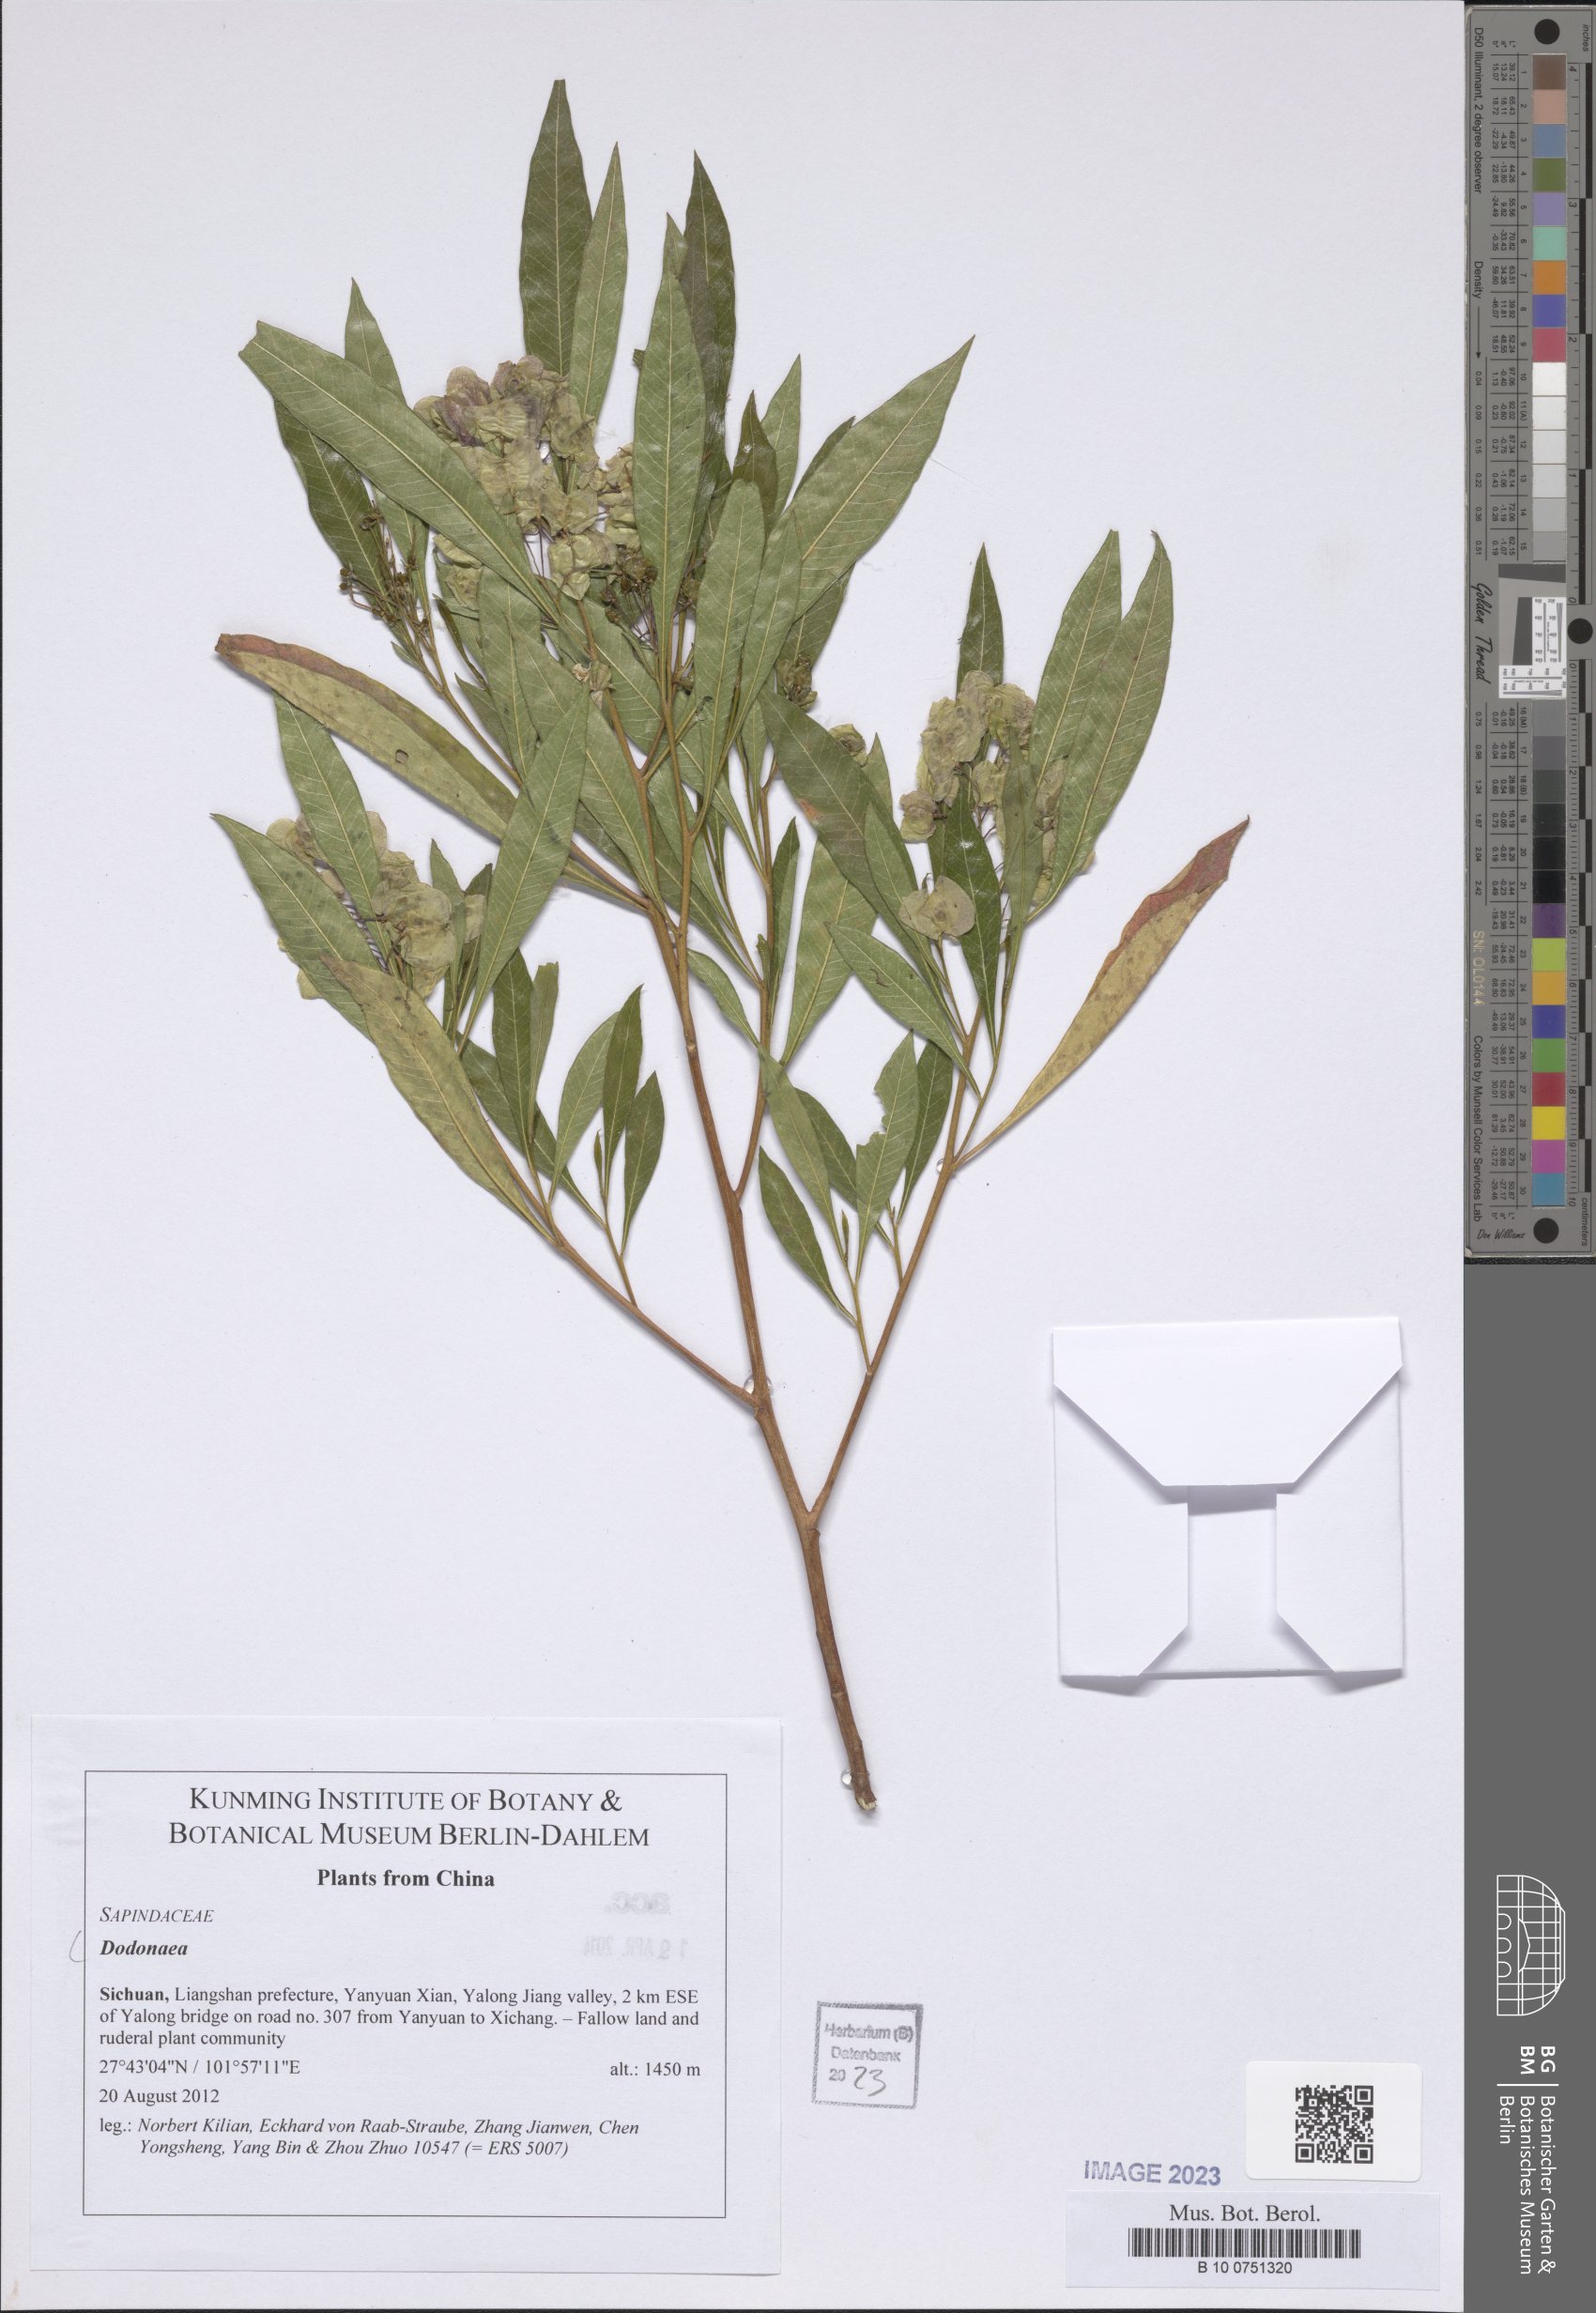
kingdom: Plantae
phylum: Tracheophyta
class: Magnoliopsida
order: Sapindales
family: Sapindaceae
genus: Dodonaea
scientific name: Dodonaea
